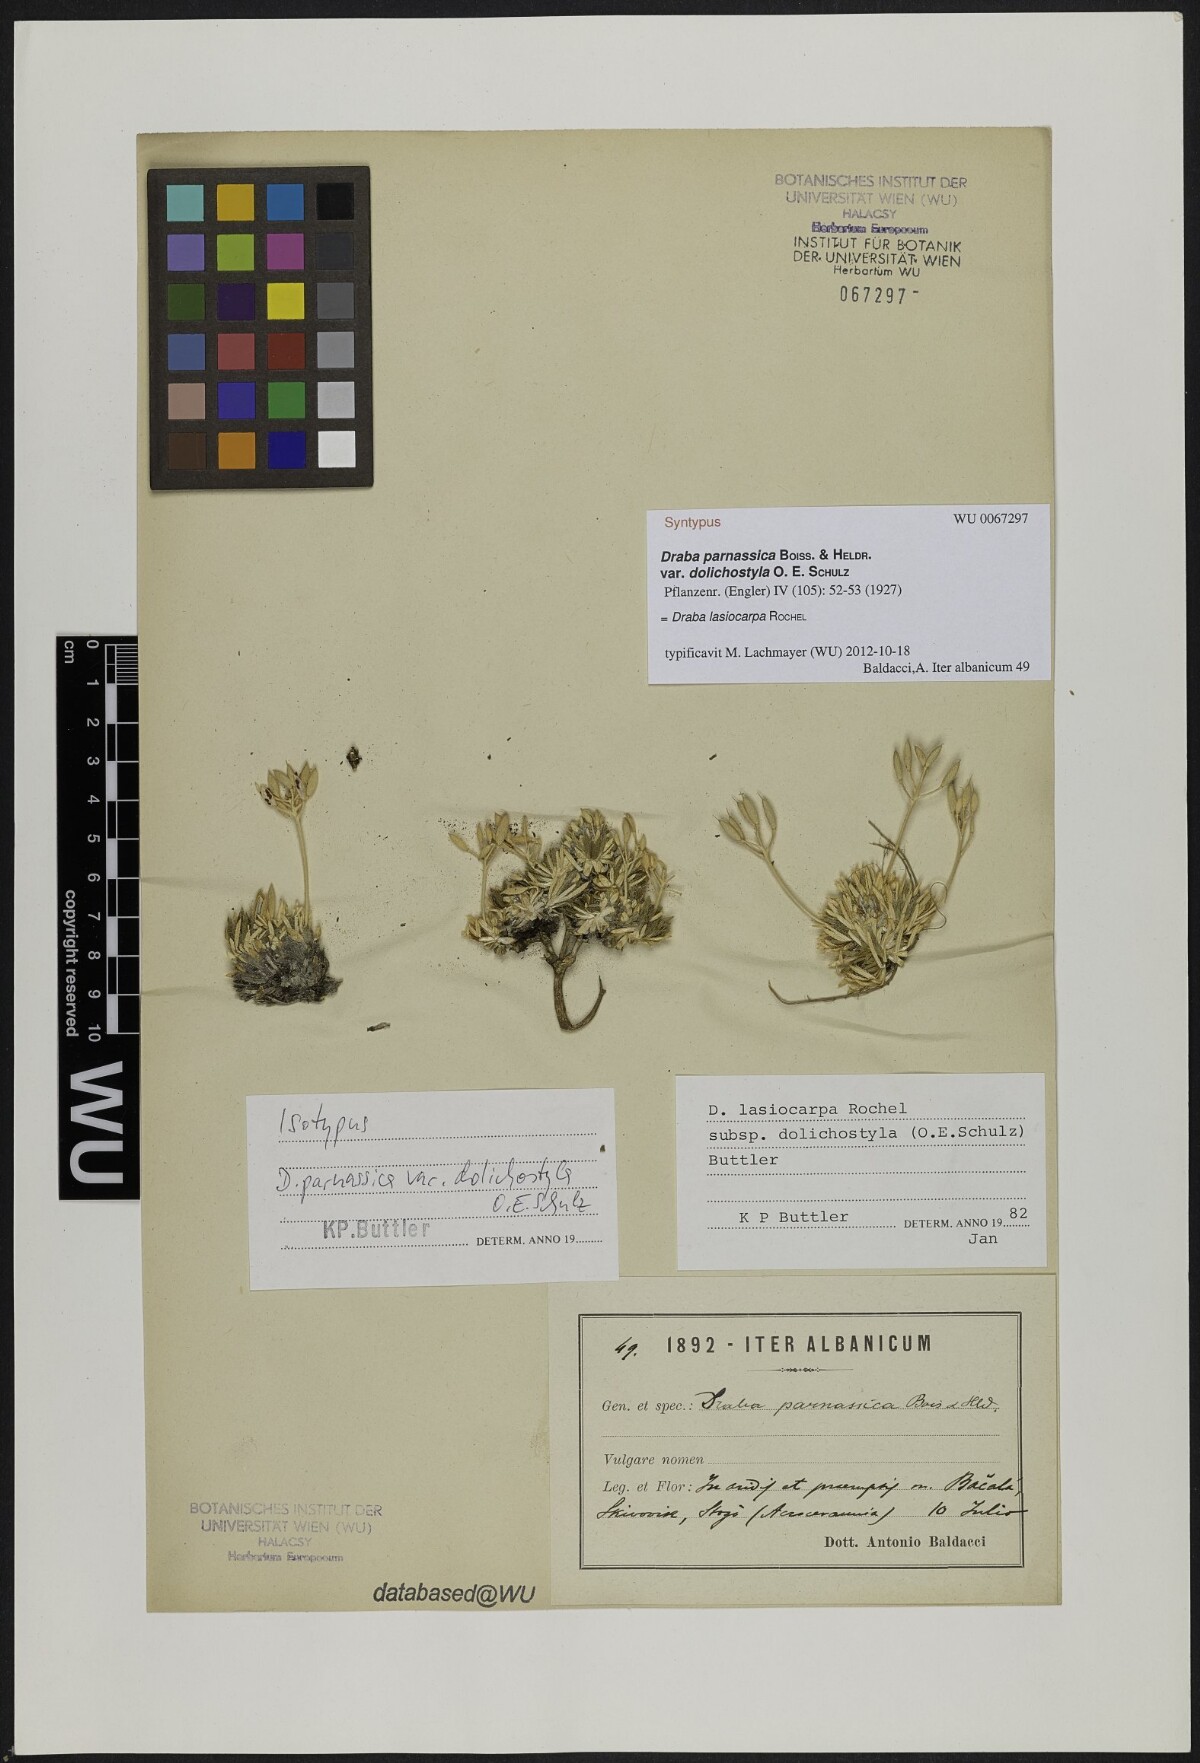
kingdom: Plantae
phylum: Tracheophyta
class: Magnoliopsida
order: Brassicales
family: Brassicaceae
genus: Draba
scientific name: Draba lasiocarpa
